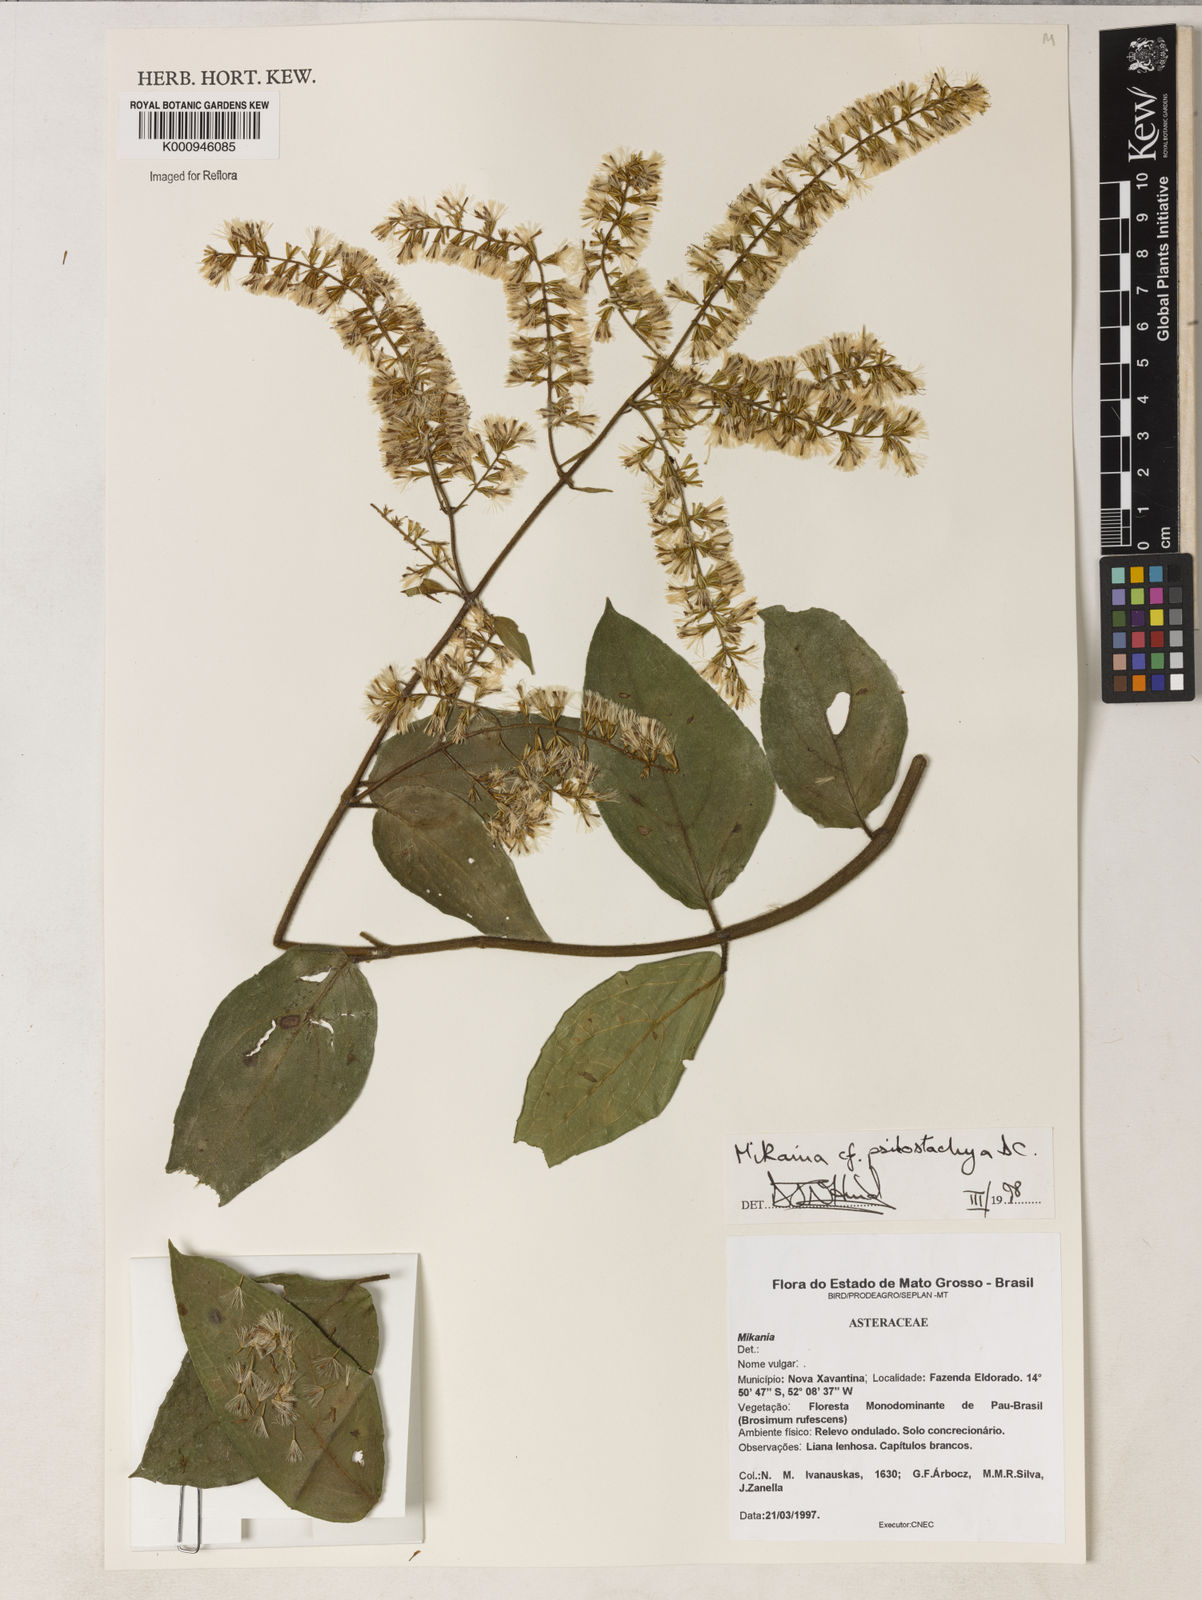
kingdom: Plantae
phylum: Tracheophyta
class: Magnoliopsida
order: Asterales
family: Asteraceae
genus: Mikania
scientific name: Mikania psilostachya
